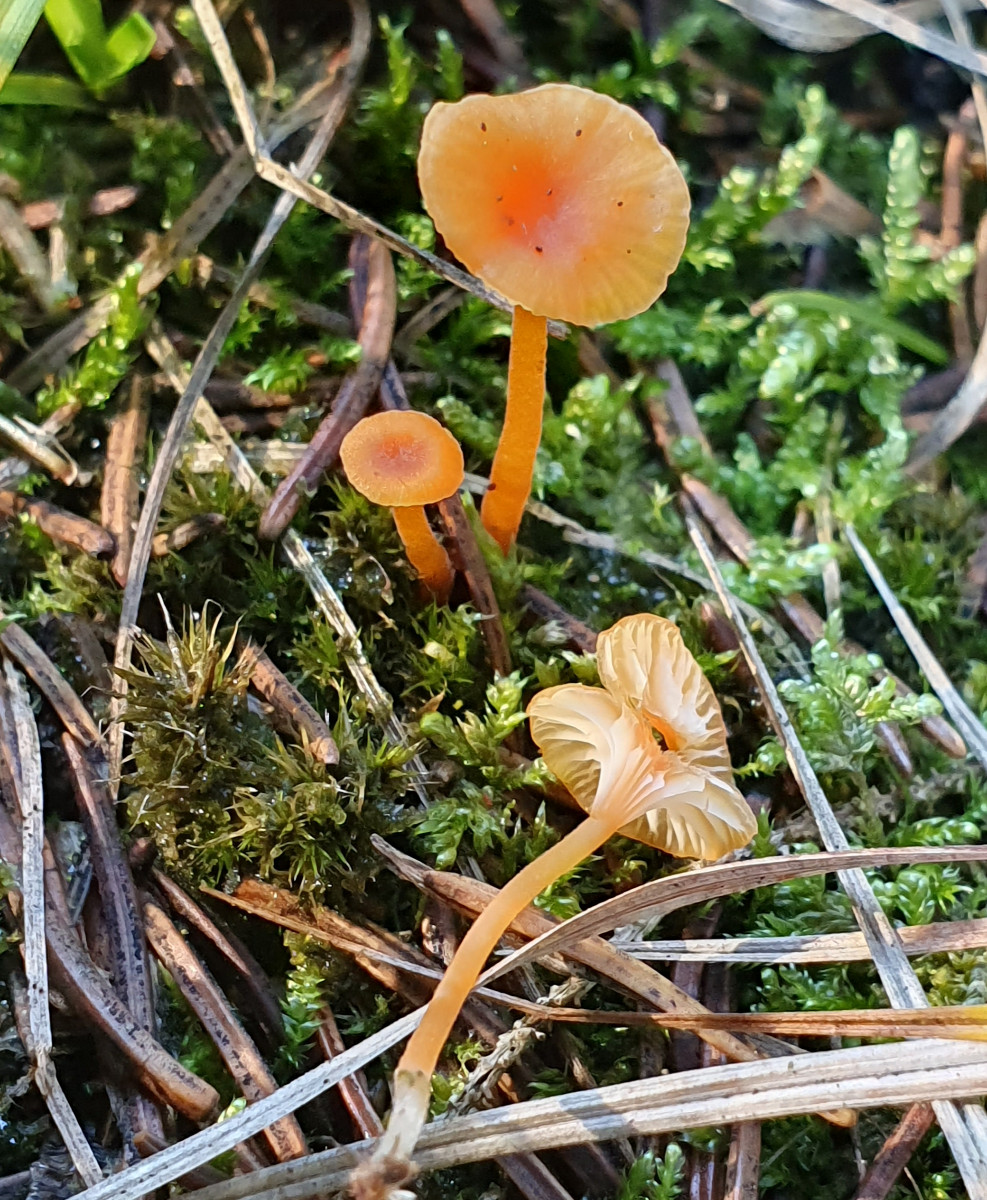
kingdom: Fungi
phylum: Basidiomycota
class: Agaricomycetes
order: Hymenochaetales
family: Rickenellaceae
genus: Rickenella
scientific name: Rickenella fibula
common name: orange mosnavlehat
